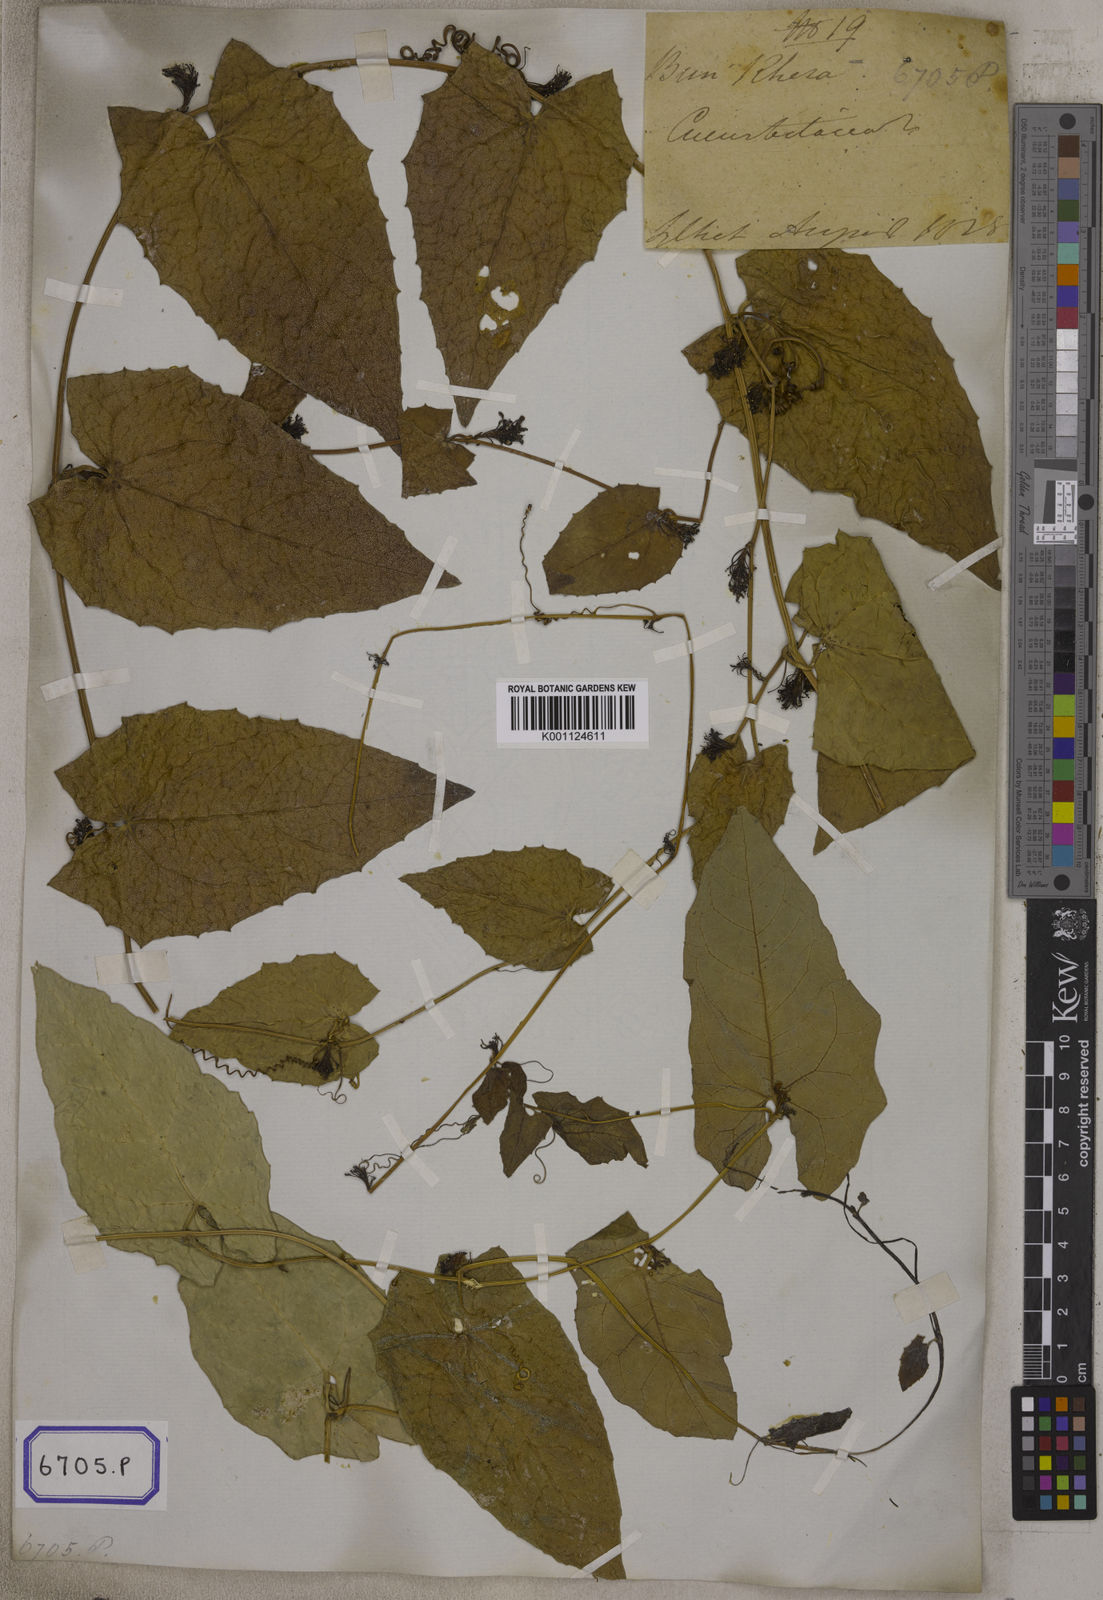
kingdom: Plantae
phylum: Tracheophyta
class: Magnoliopsida
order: Cucurbitales
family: Cucurbitaceae
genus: Bryonia
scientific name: Bryonia
